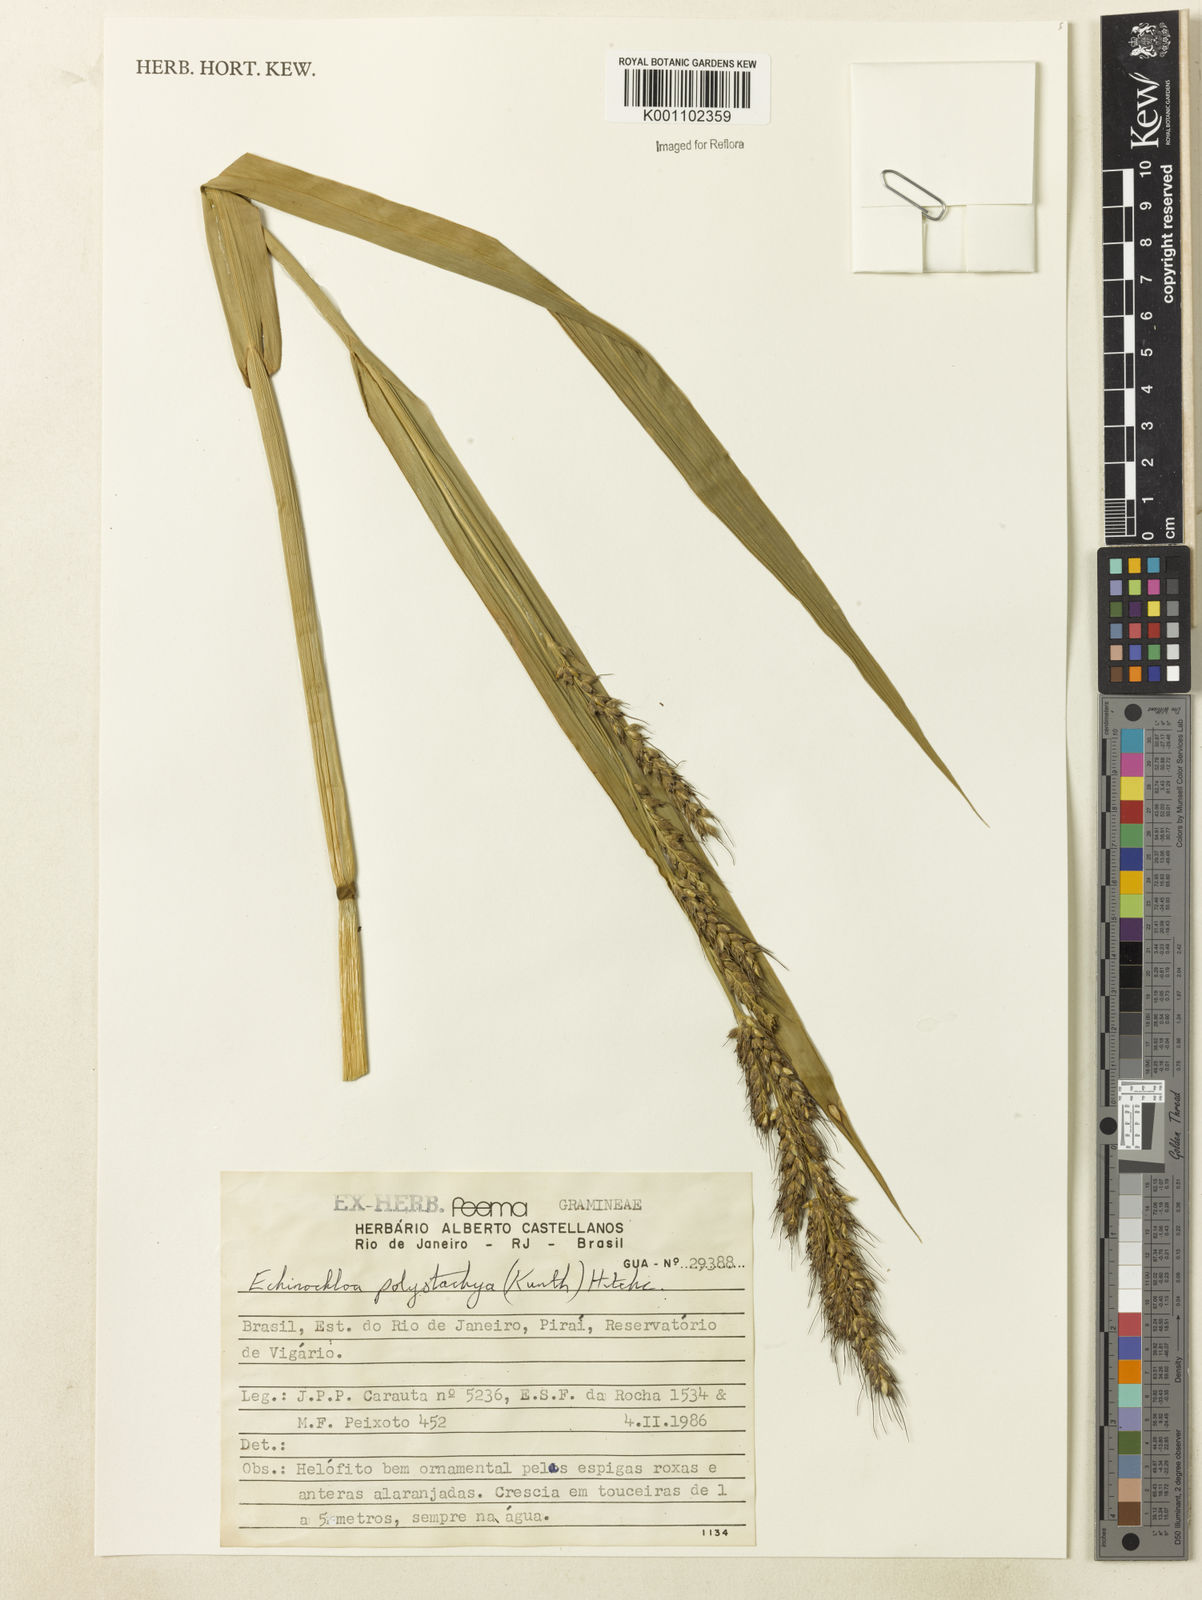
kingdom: Plantae
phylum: Tracheophyta
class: Liliopsida
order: Poales
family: Poaceae
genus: Echinochloa
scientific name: Echinochloa polystachya
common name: Creeping river grass
